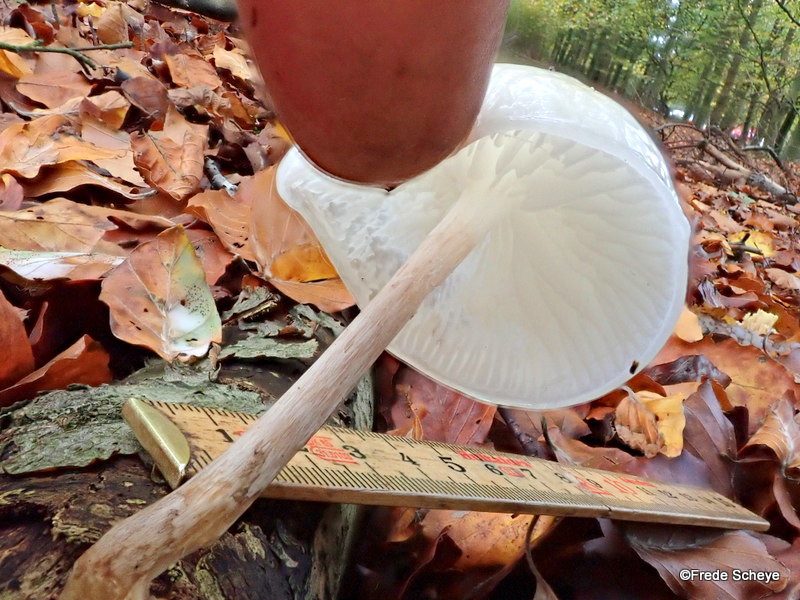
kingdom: Fungi
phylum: Basidiomycota
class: Agaricomycetes
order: Agaricales
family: Physalacriaceae
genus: Mucidula
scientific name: Mucidula mucida
